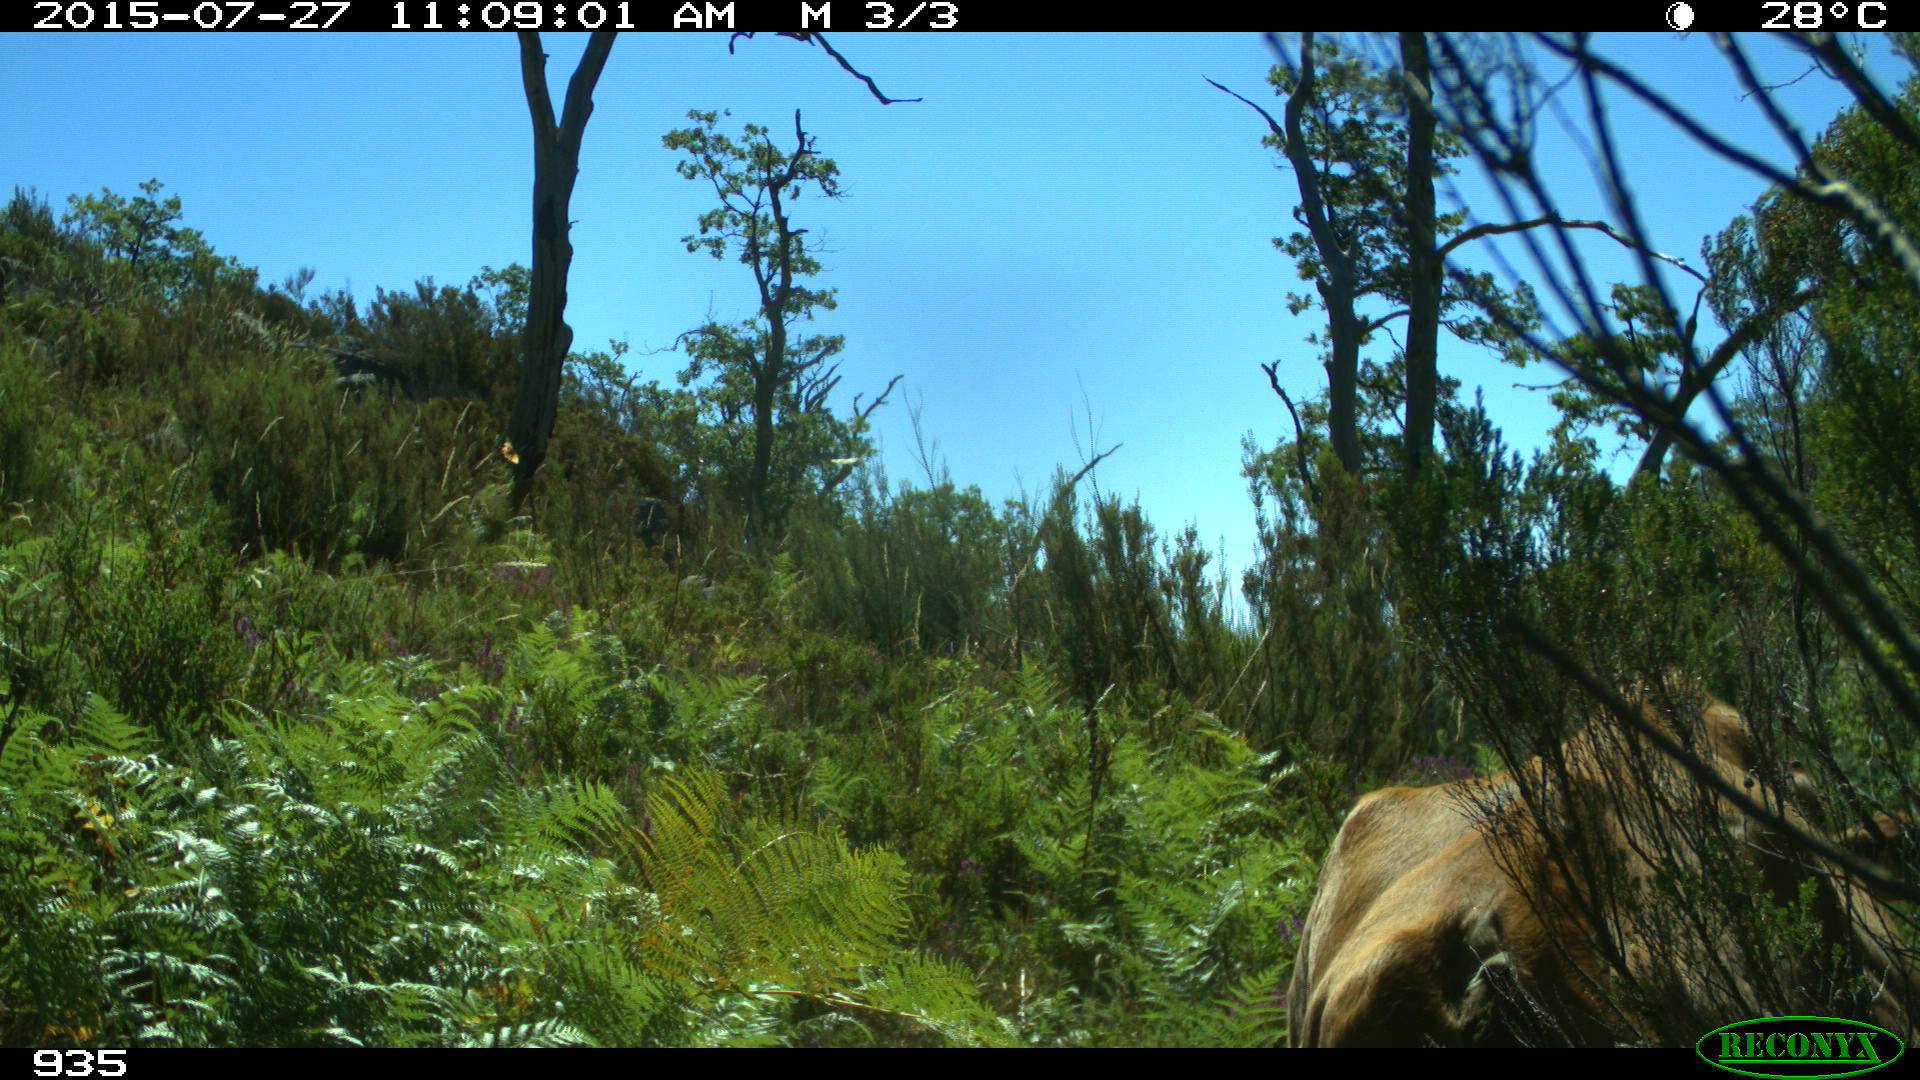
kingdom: Animalia
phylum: Chordata
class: Mammalia
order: Artiodactyla
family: Bovidae
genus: Bos
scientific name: Bos taurus
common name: Domesticated cattle
